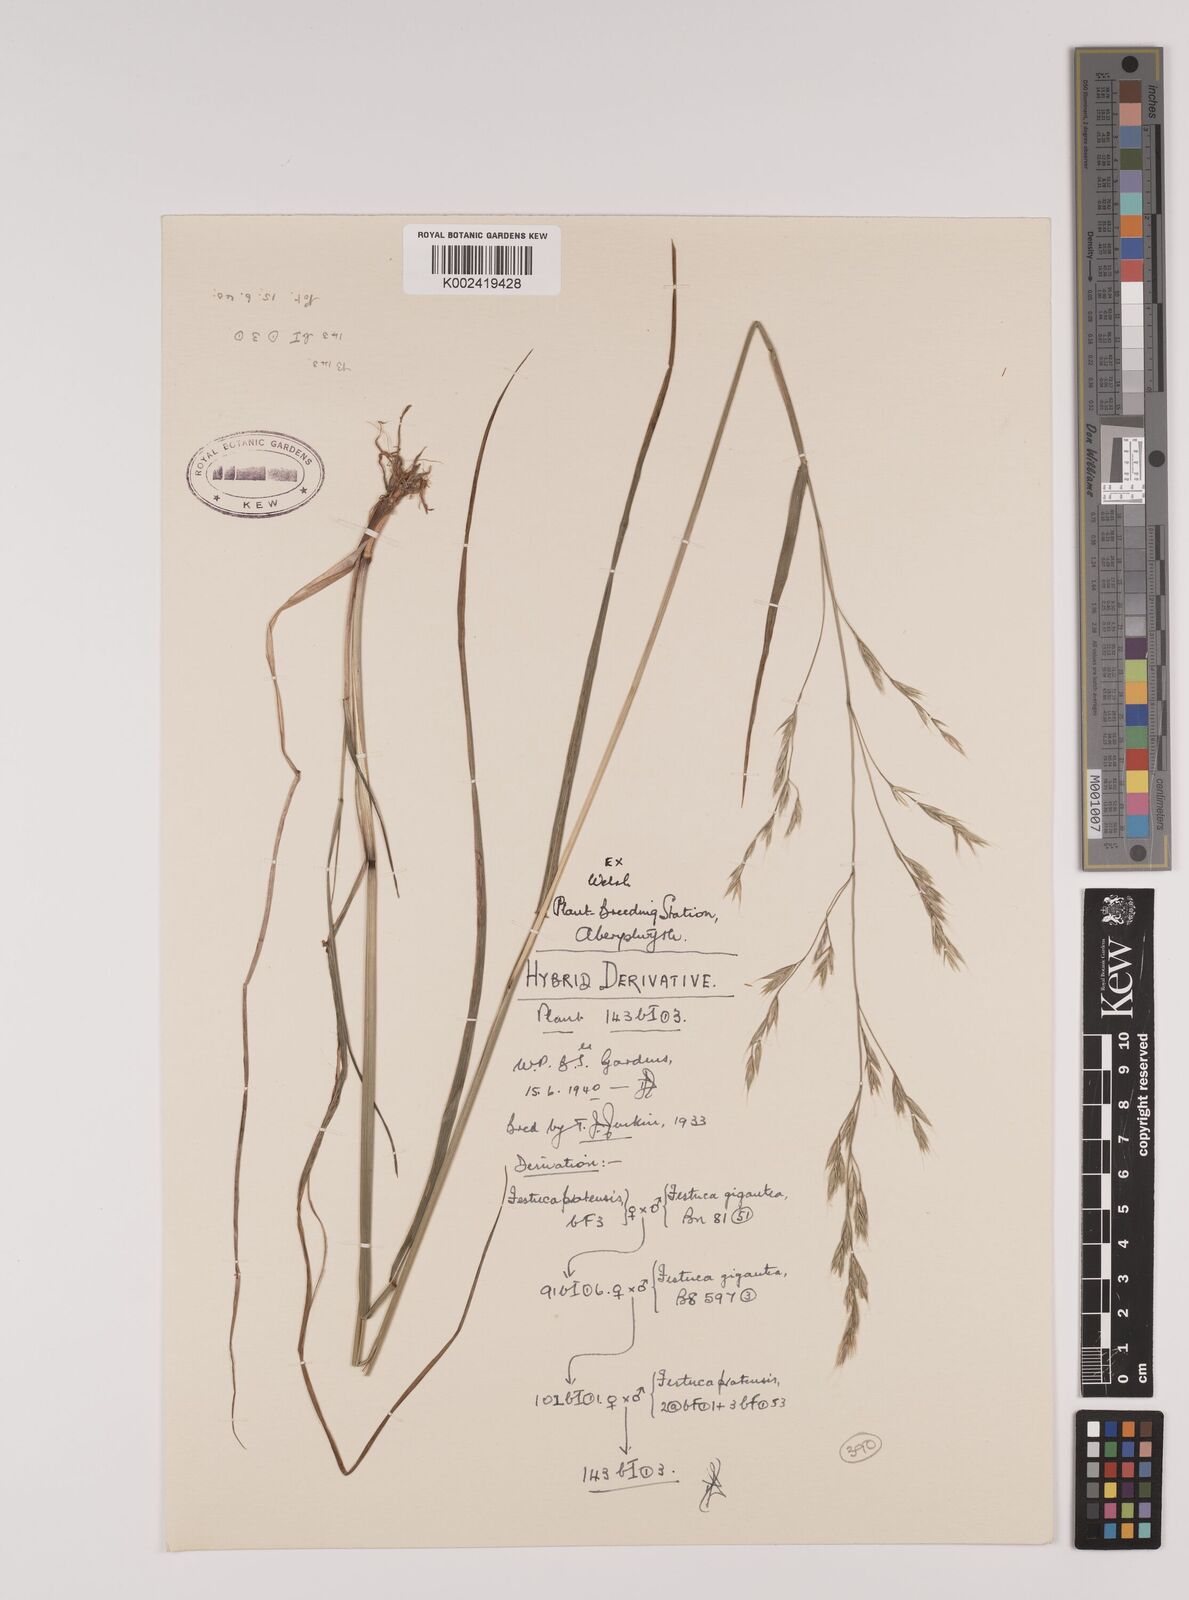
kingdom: Plantae
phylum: Tracheophyta
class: Liliopsida
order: Poales
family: Poaceae
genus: Lolium
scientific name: Lolium giganteum
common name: Giant fescue
